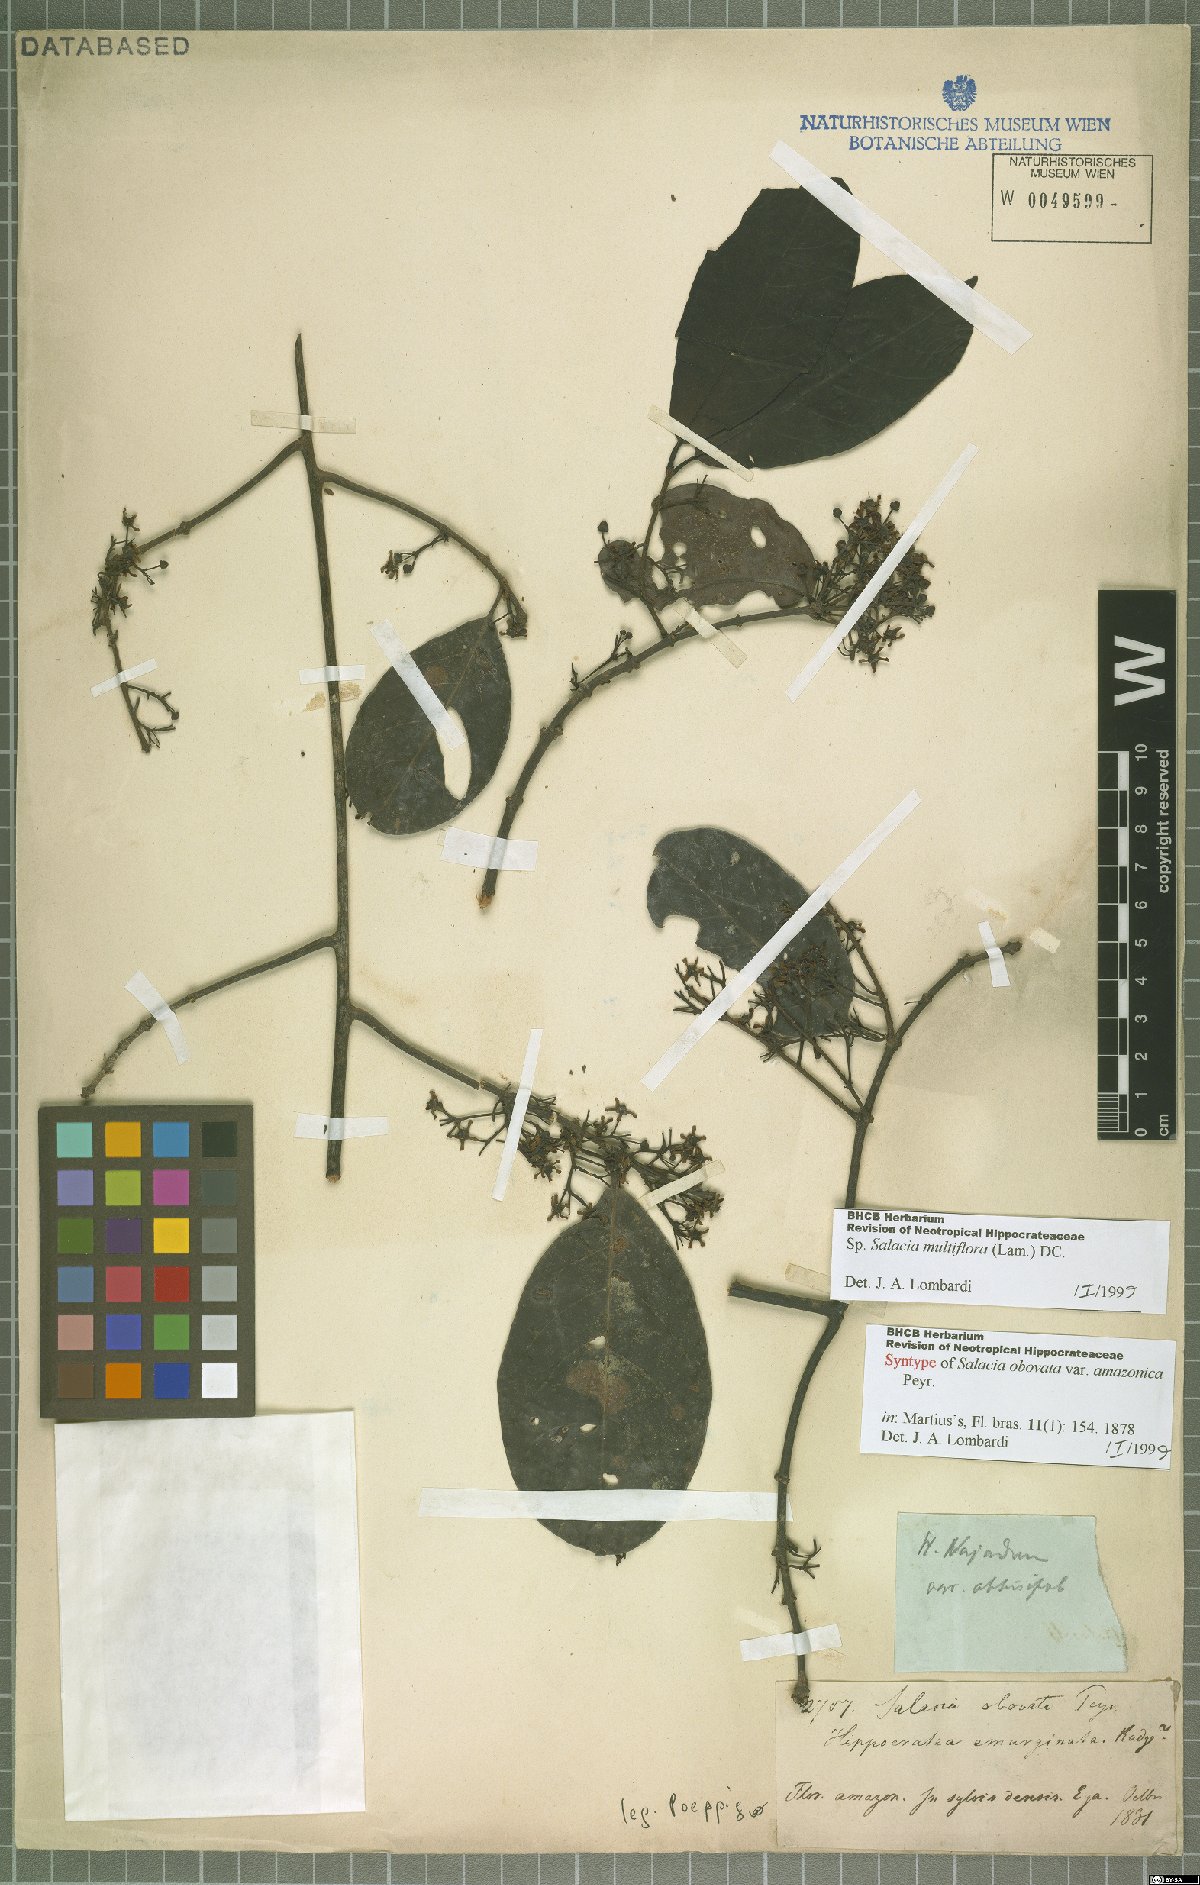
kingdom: Plantae
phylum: Tracheophyta
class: Magnoliopsida
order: Celastrales
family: Celastraceae
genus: Salacia
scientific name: Salacia multiflora
